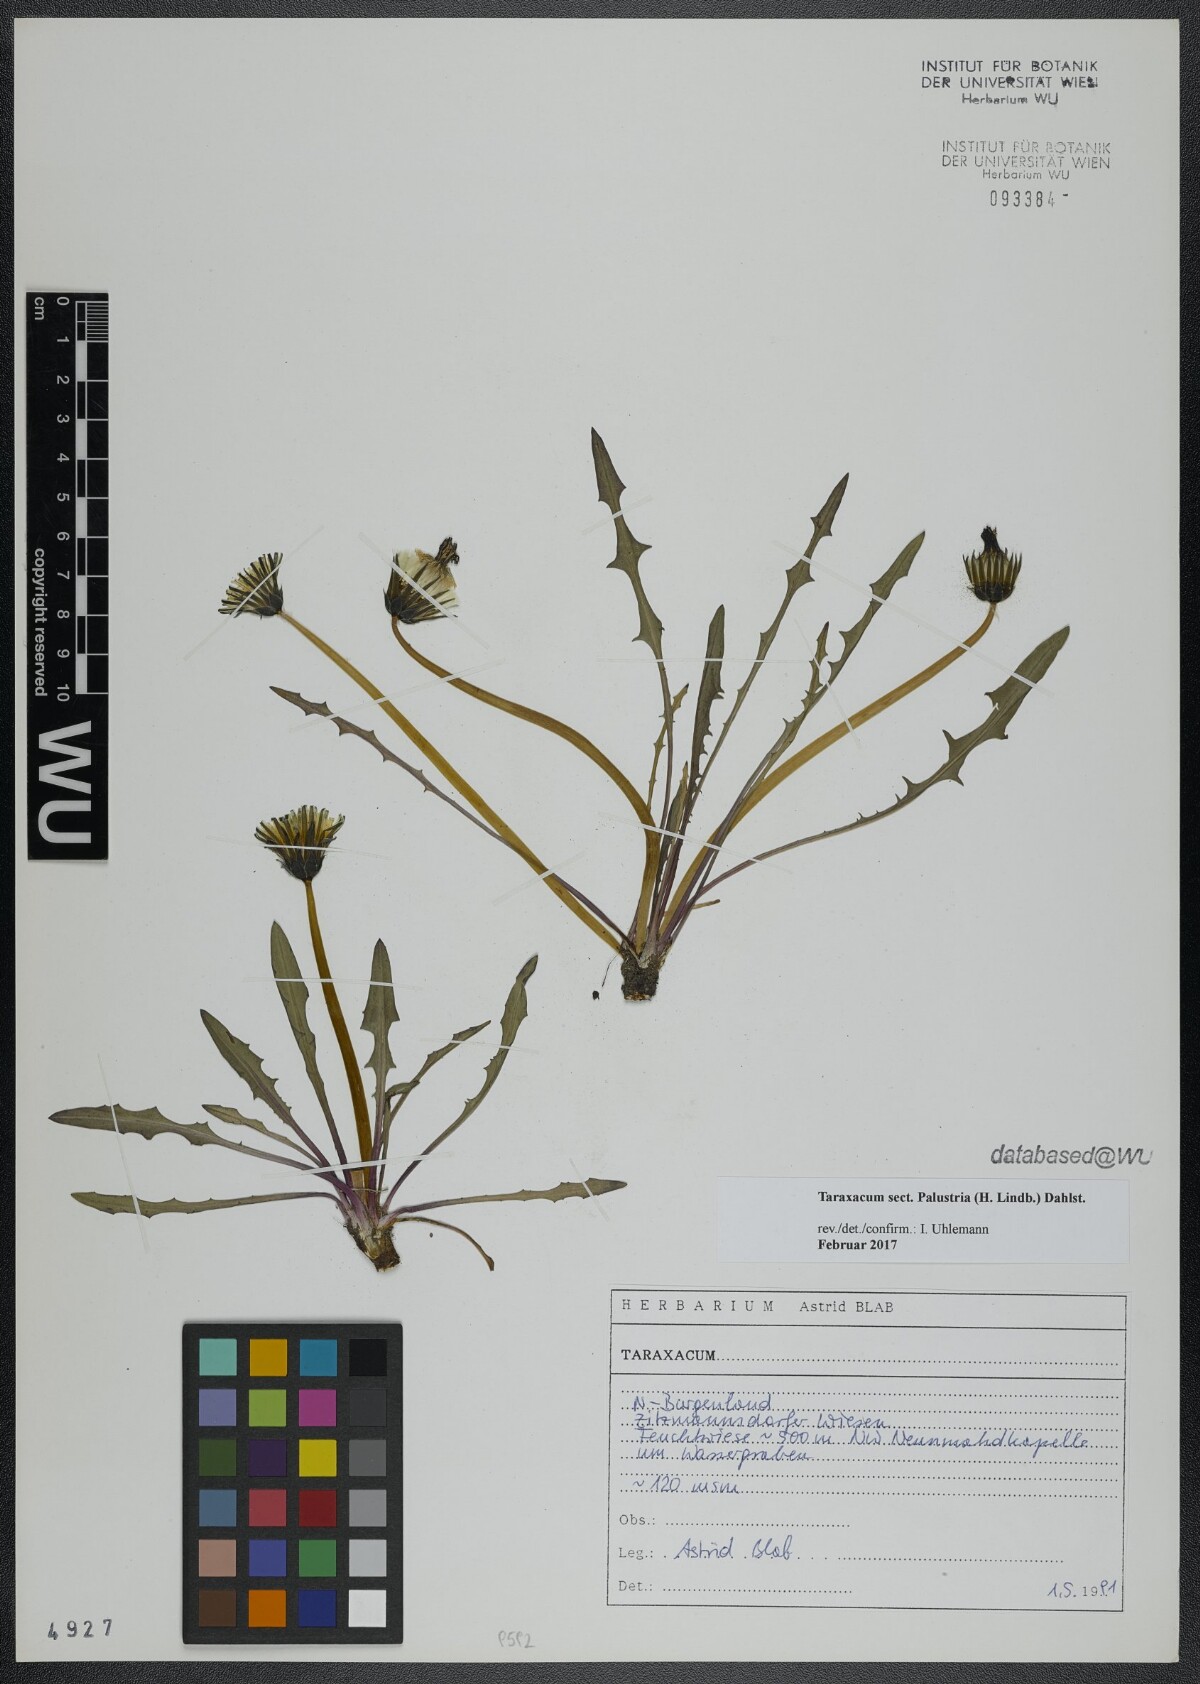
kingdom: Plantae
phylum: Tracheophyta
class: Magnoliopsida
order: Asterales
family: Asteraceae
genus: Taraxacum
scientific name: Taraxacum
